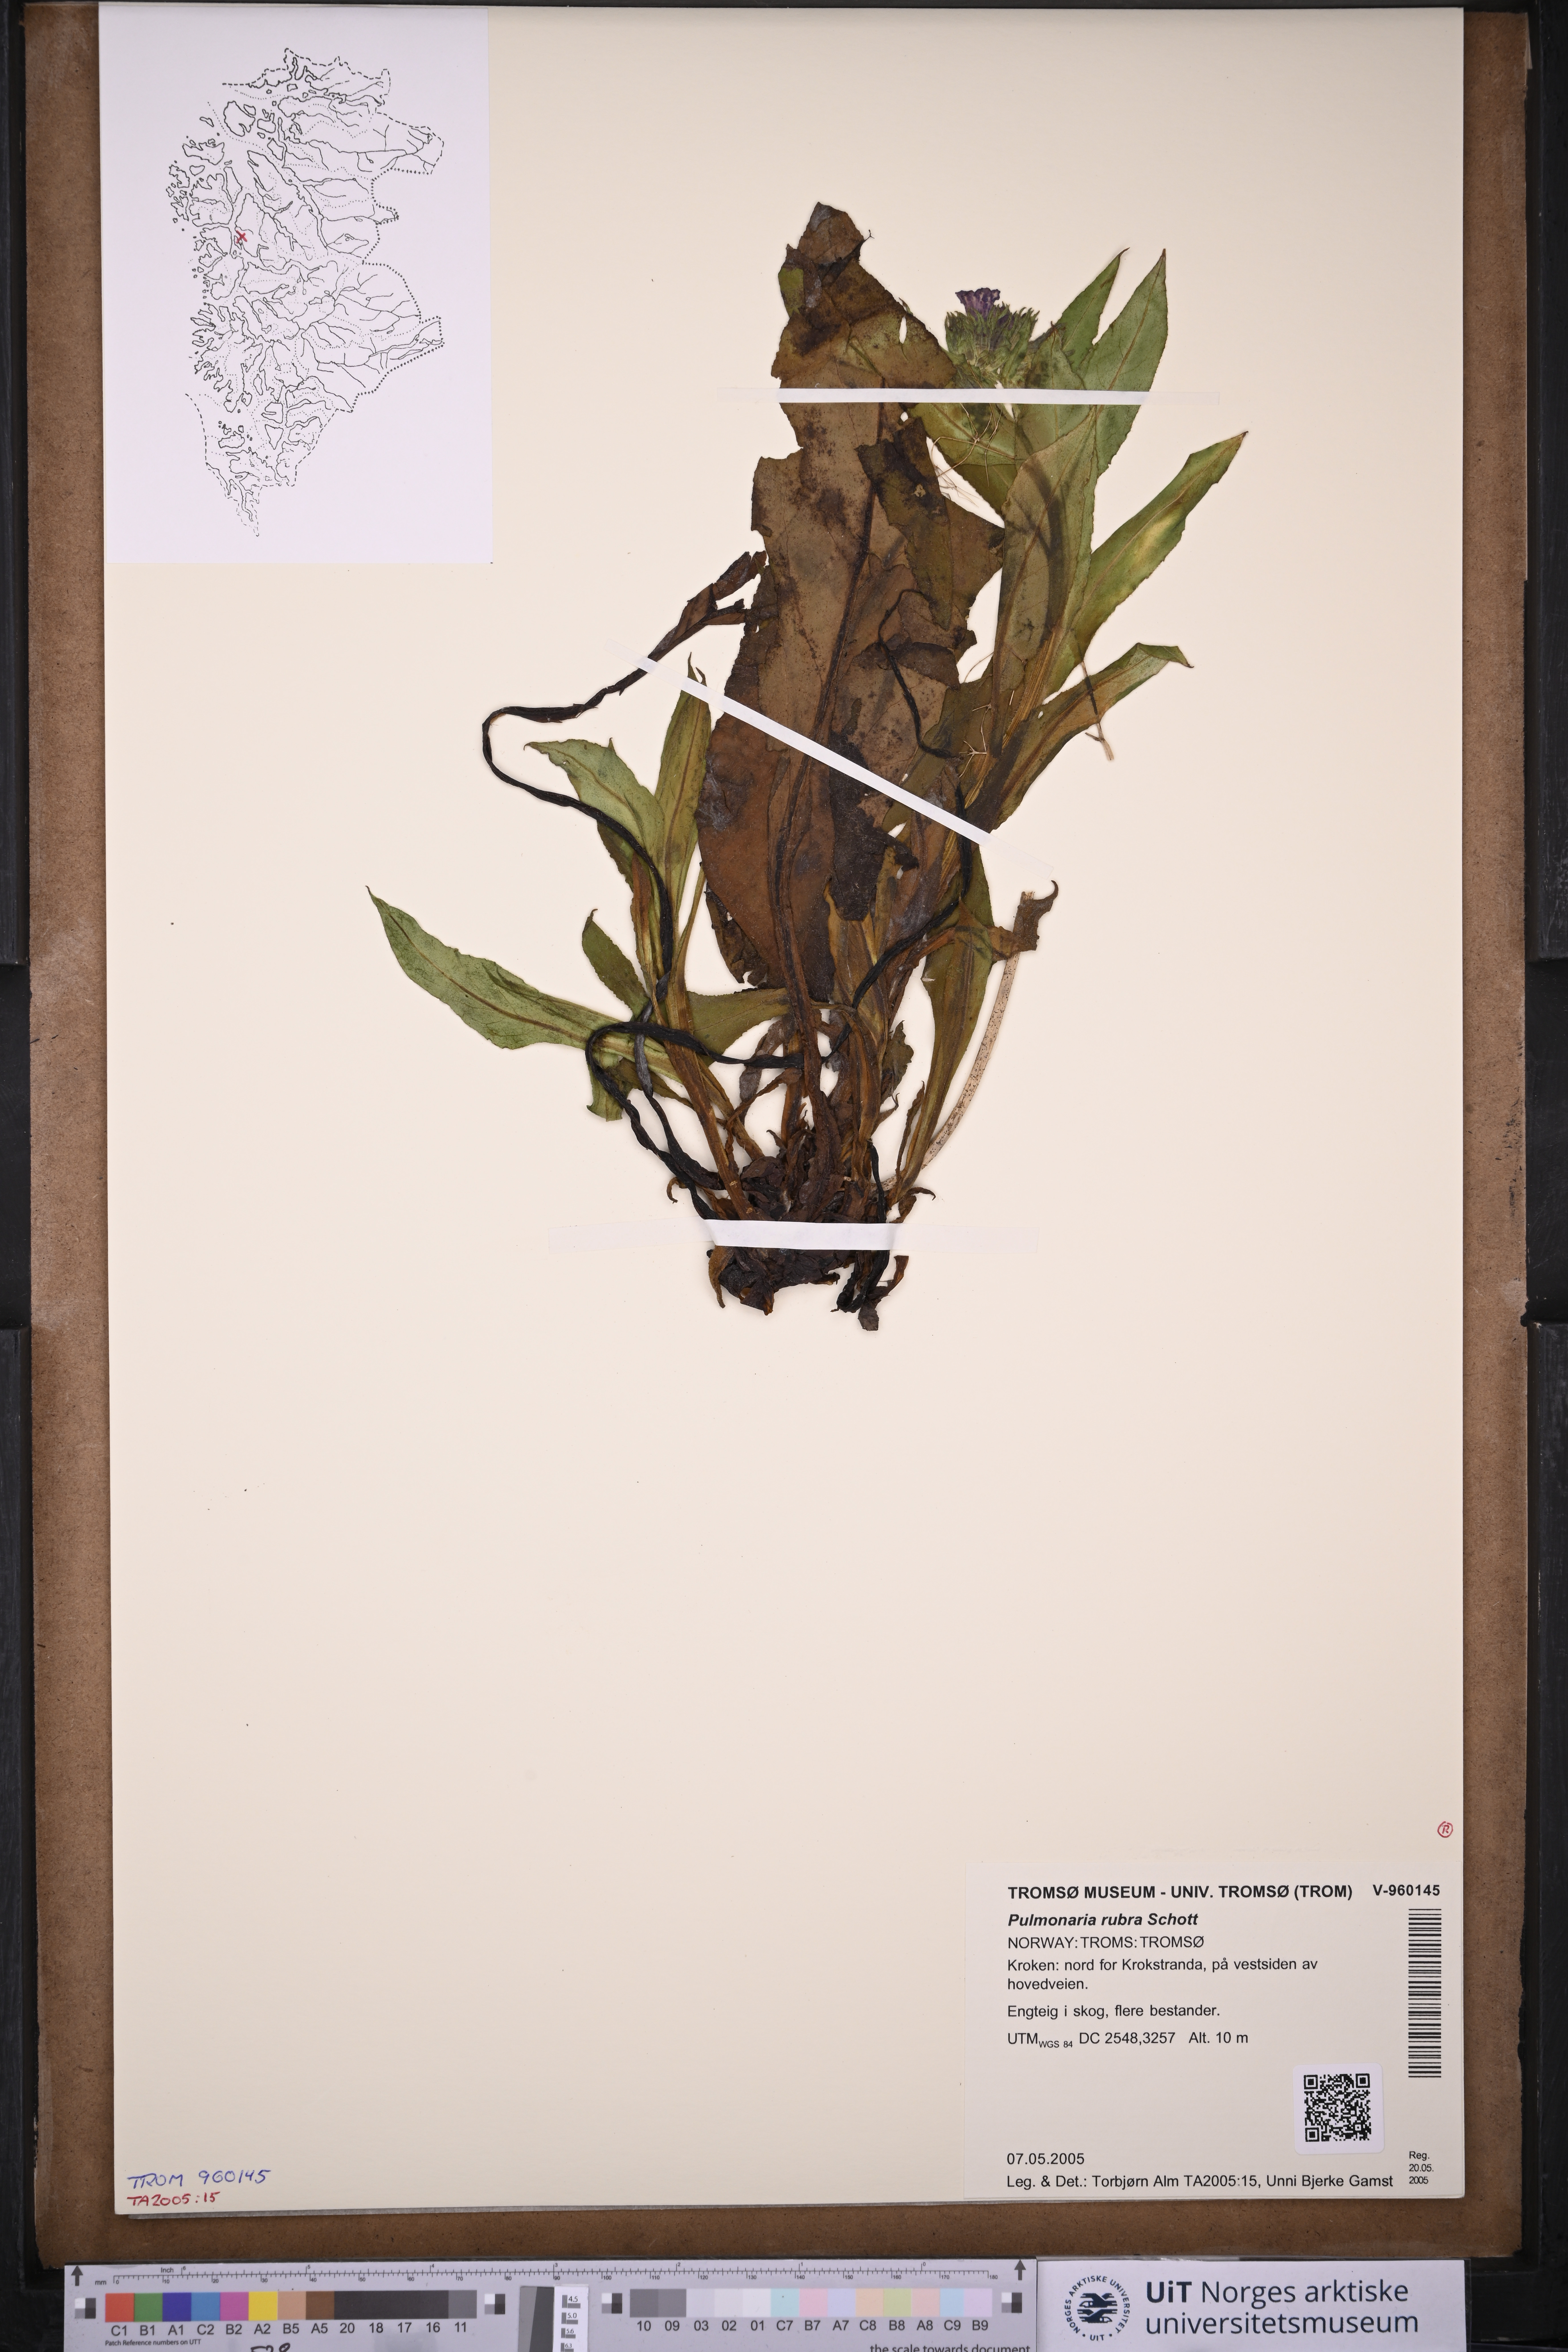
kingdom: Plantae
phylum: Tracheophyta
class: Magnoliopsida
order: Boraginales
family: Boraginaceae
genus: Pulmonaria
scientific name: Pulmonaria rubra
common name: Red lungwort
